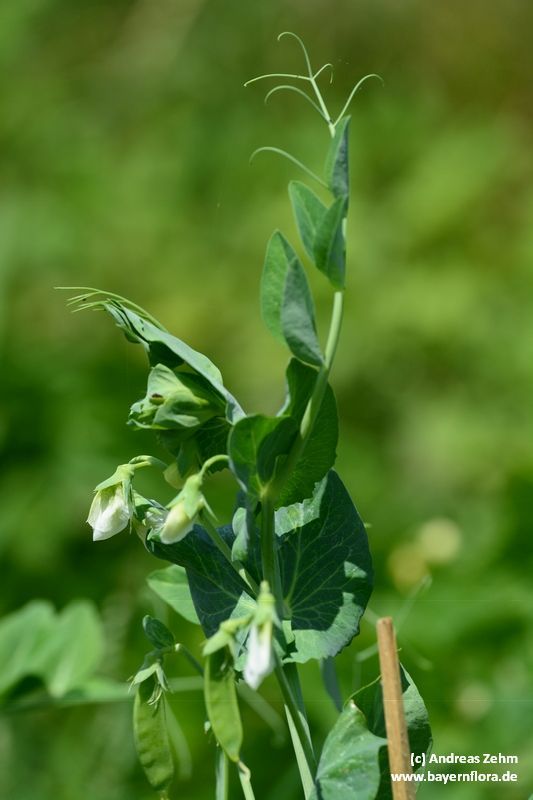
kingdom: Plantae
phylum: Tracheophyta
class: Magnoliopsida
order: Fabales
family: Fabaceae
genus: Lathyrus
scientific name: Lathyrus oleraceus
